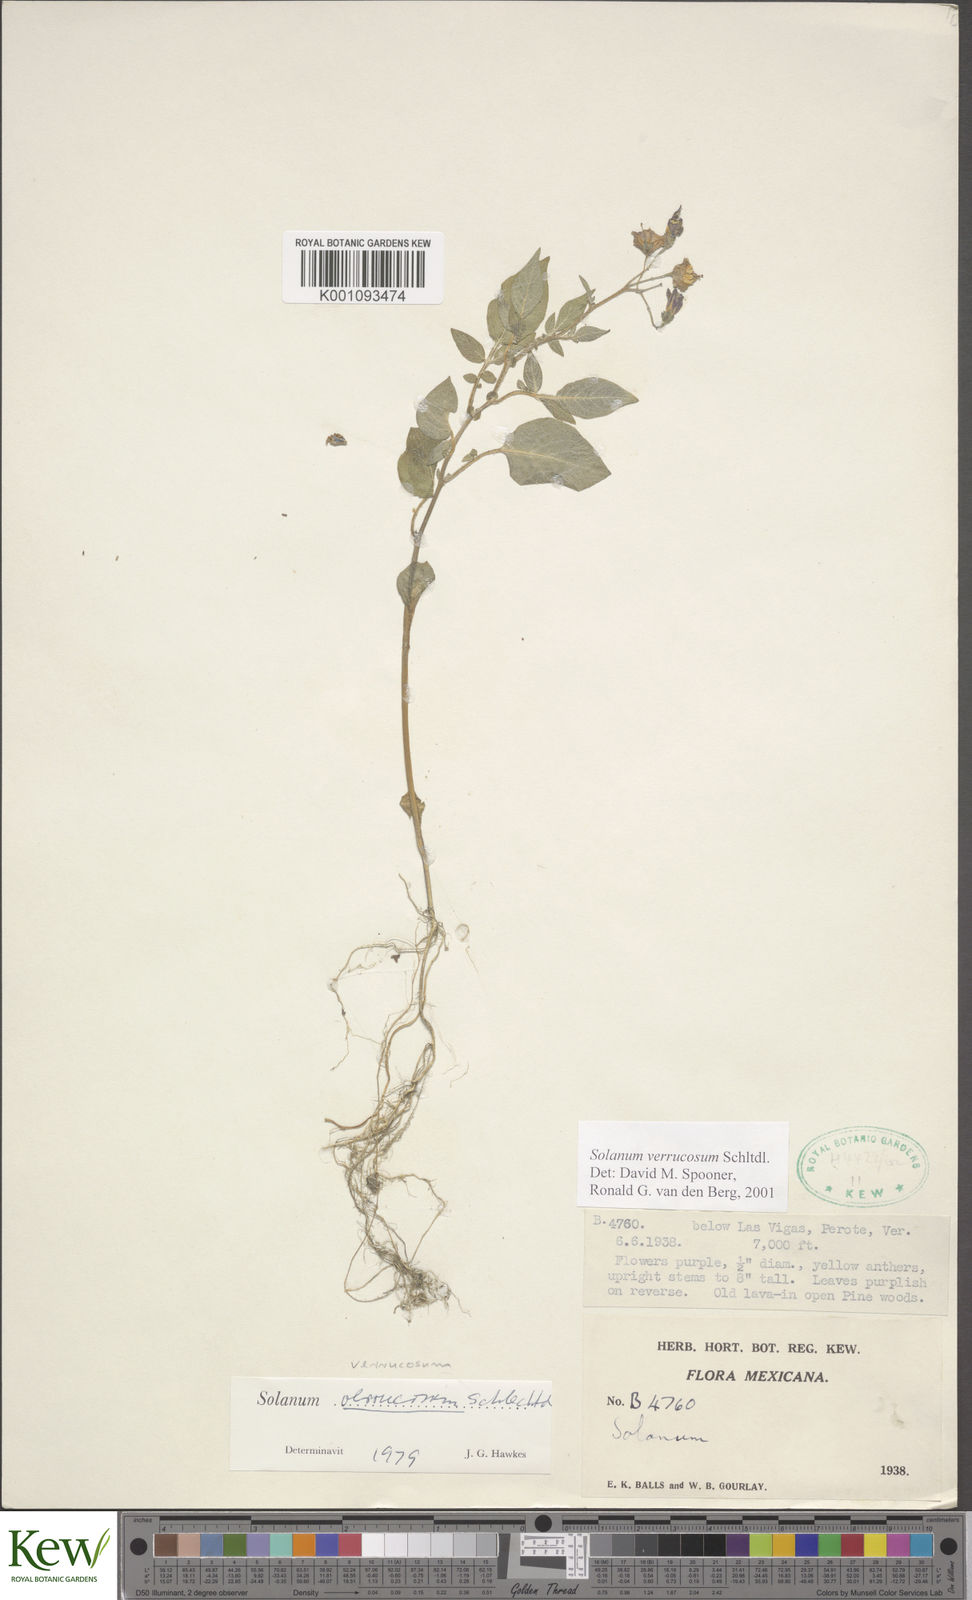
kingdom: Plantae
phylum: Tracheophyta
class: Magnoliopsida
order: Solanales
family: Solanaceae
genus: Solanum
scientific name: Solanum verrucosum
